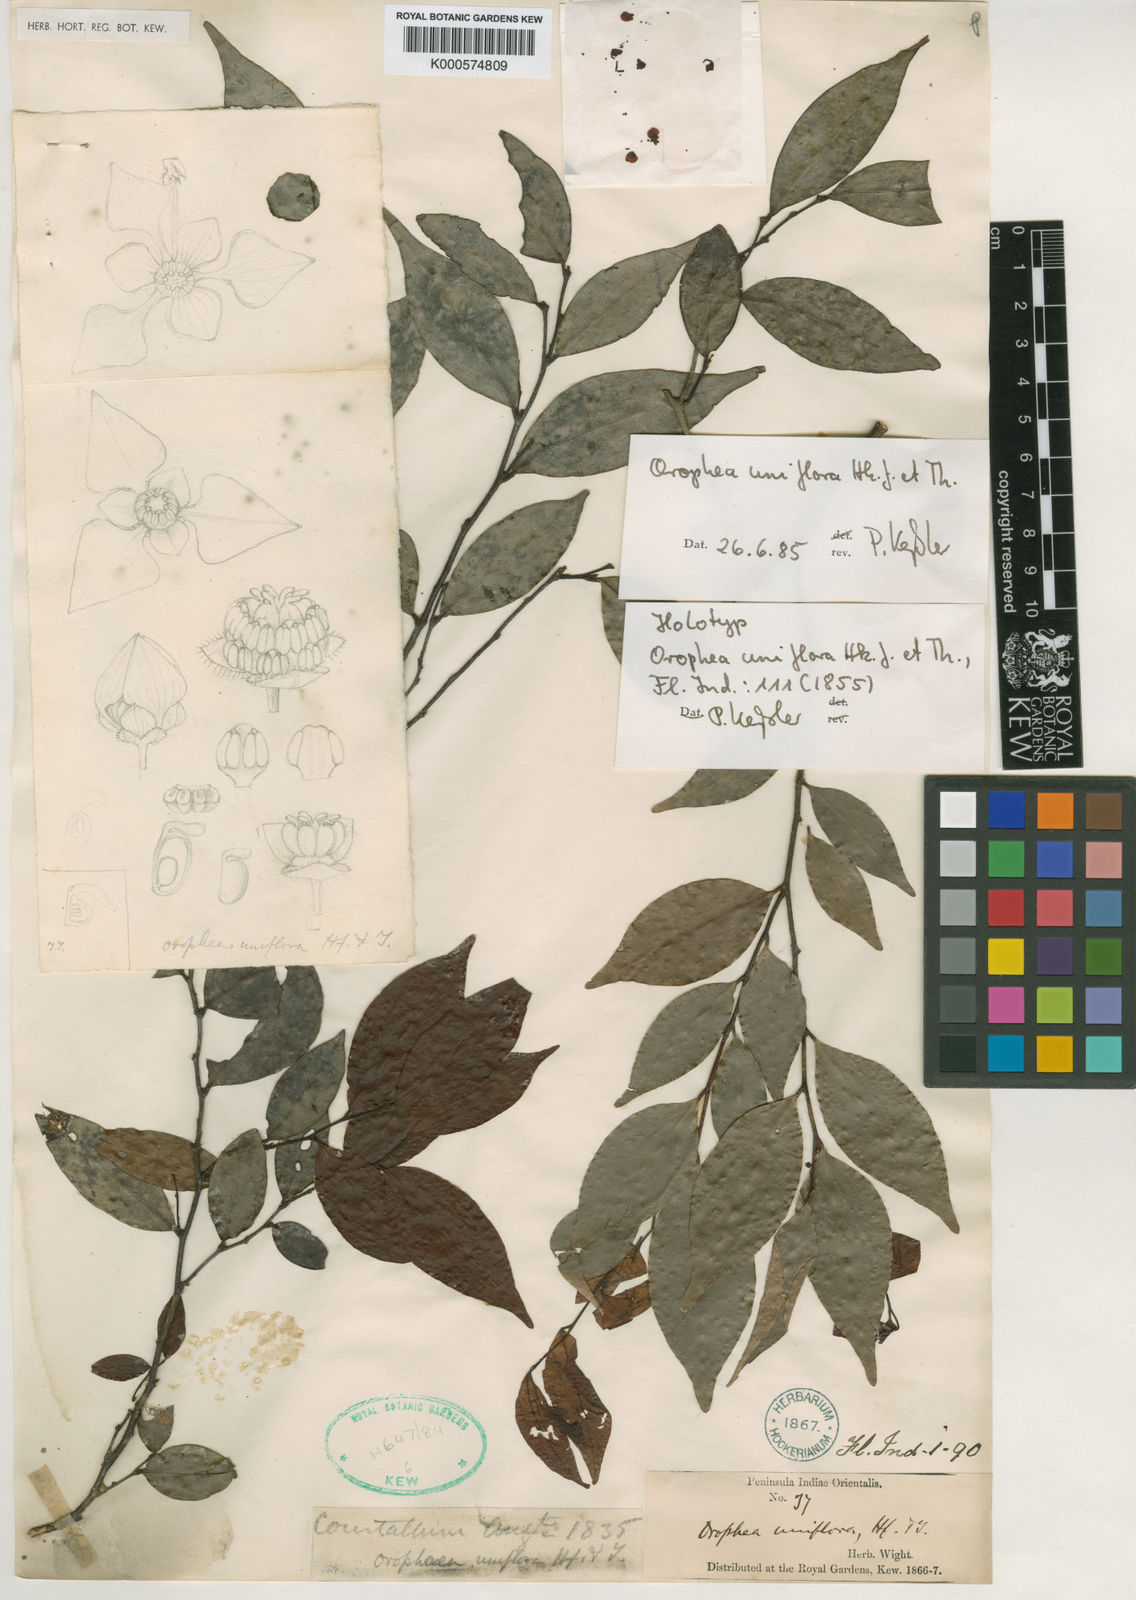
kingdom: Plantae
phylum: Tracheophyta
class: Magnoliopsida
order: Magnoliales
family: Annonaceae
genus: Orophea
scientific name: Orophea uniflora
